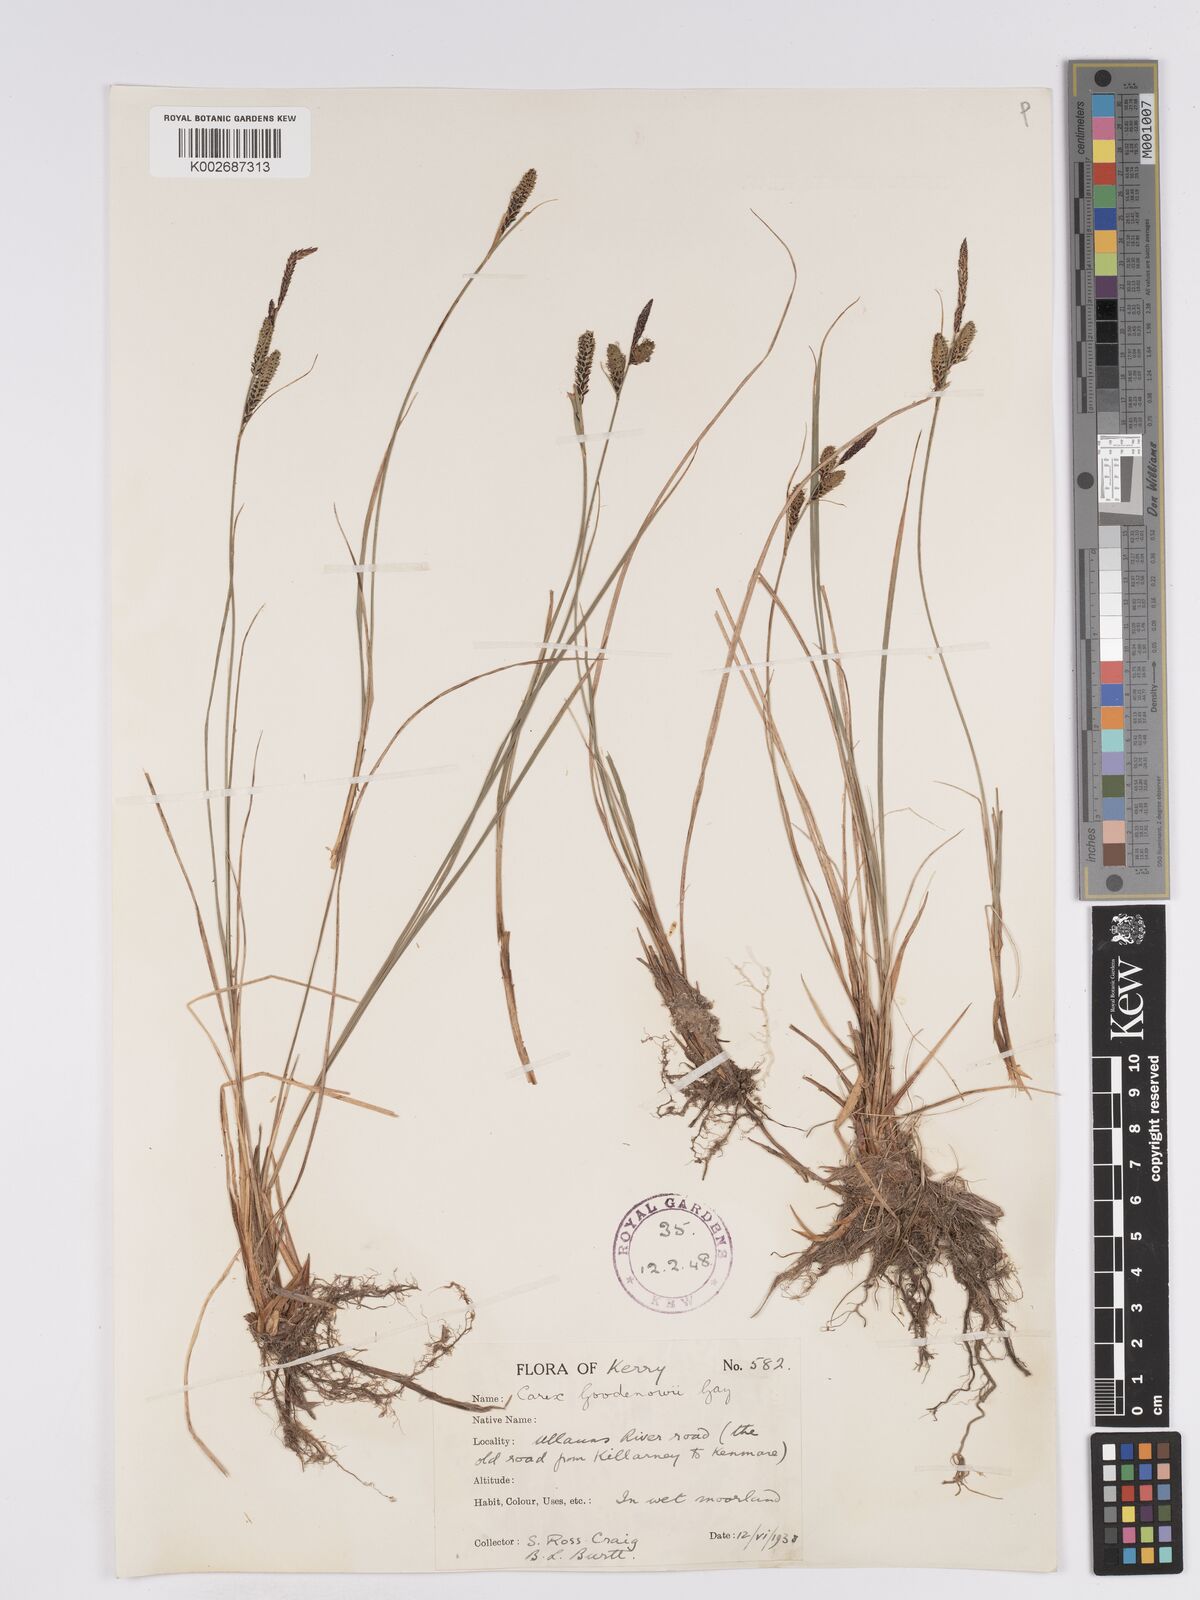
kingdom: Plantae
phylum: Tracheophyta
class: Liliopsida
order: Poales
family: Cyperaceae
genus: Carex
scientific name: Carex nigra
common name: Common sedge
